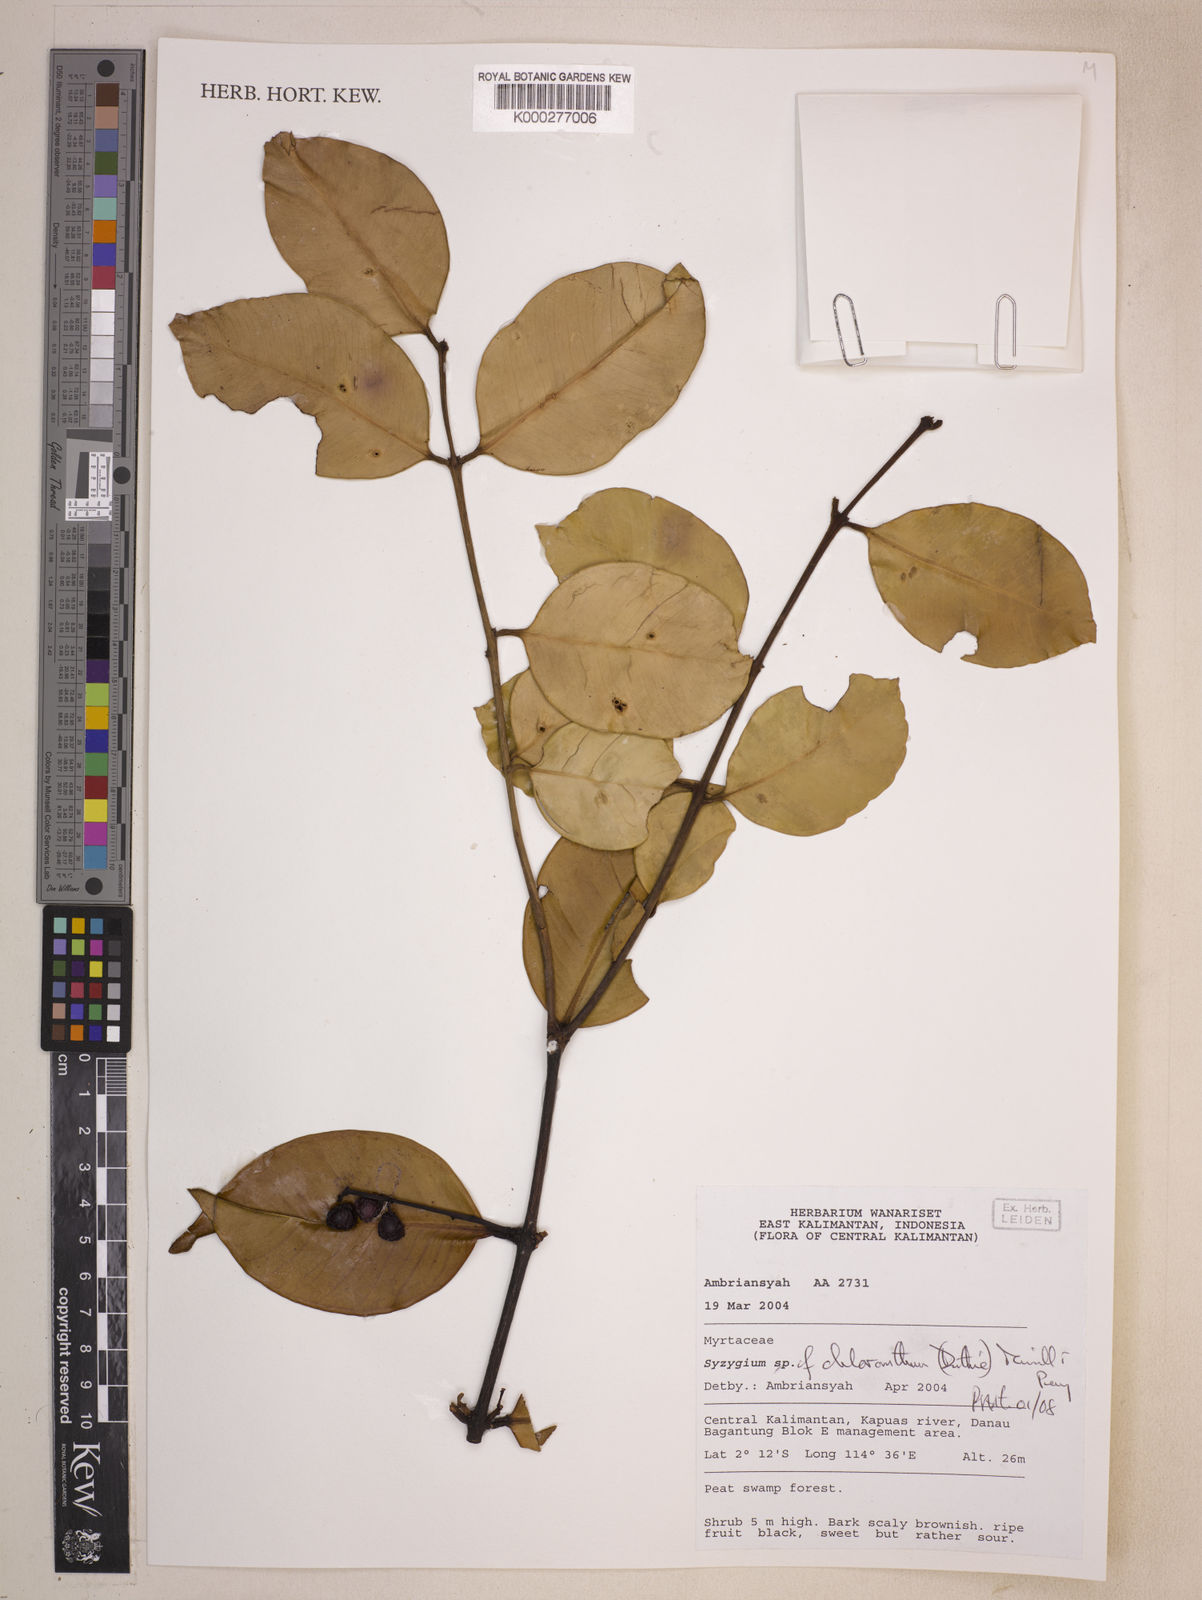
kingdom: Plantae
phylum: Tracheophyta
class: Magnoliopsida
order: Myrtales
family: Myrtaceae
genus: Syzygium
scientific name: Syzygium chloranthum
